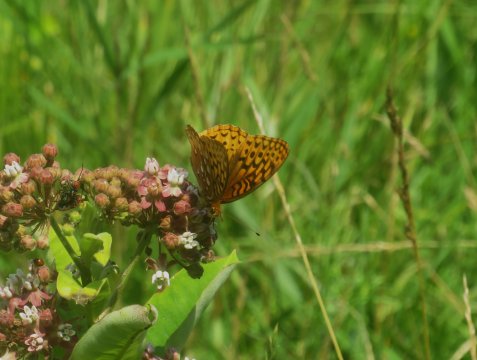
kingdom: Animalia
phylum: Arthropoda
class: Insecta
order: Lepidoptera
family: Nymphalidae
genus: Speyeria
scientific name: Speyeria cybele
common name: Great Spangled Fritillary
